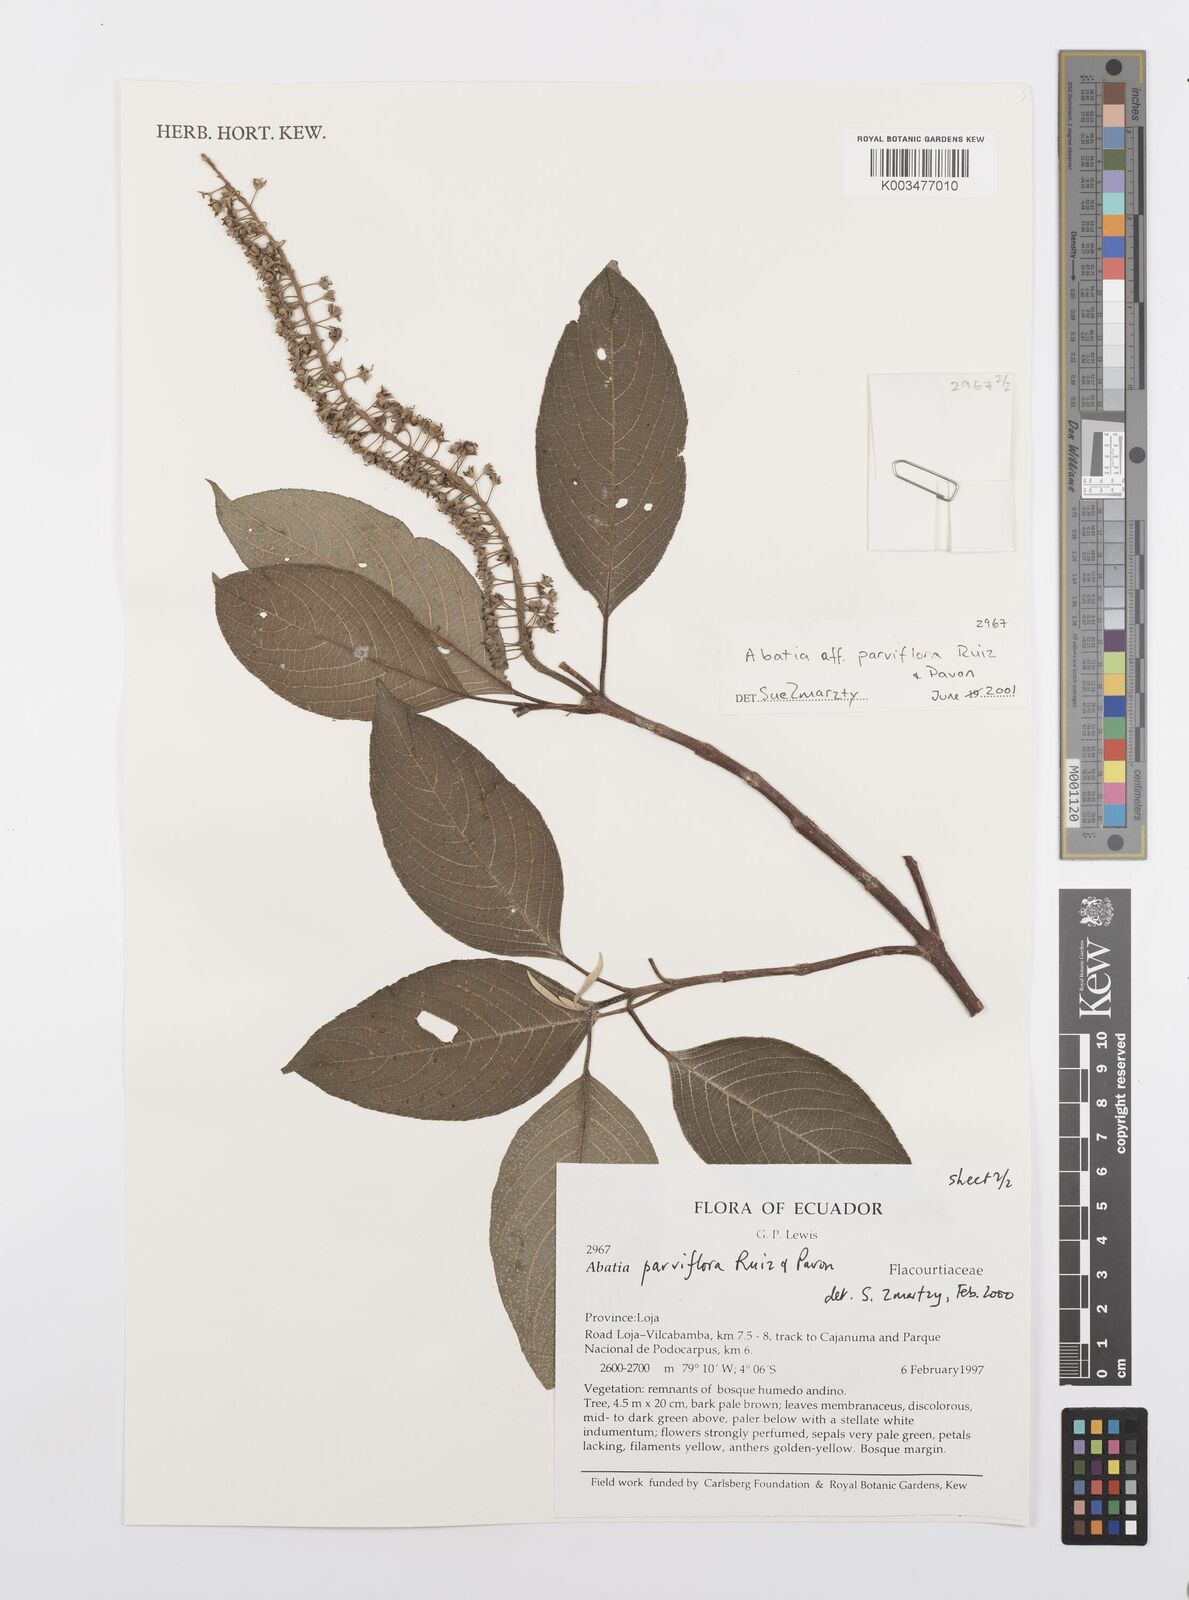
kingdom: Plantae
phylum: Tracheophyta
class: Magnoliopsida
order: Malpighiales
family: Salicaceae
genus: Abatia
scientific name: Abatia parviflora
